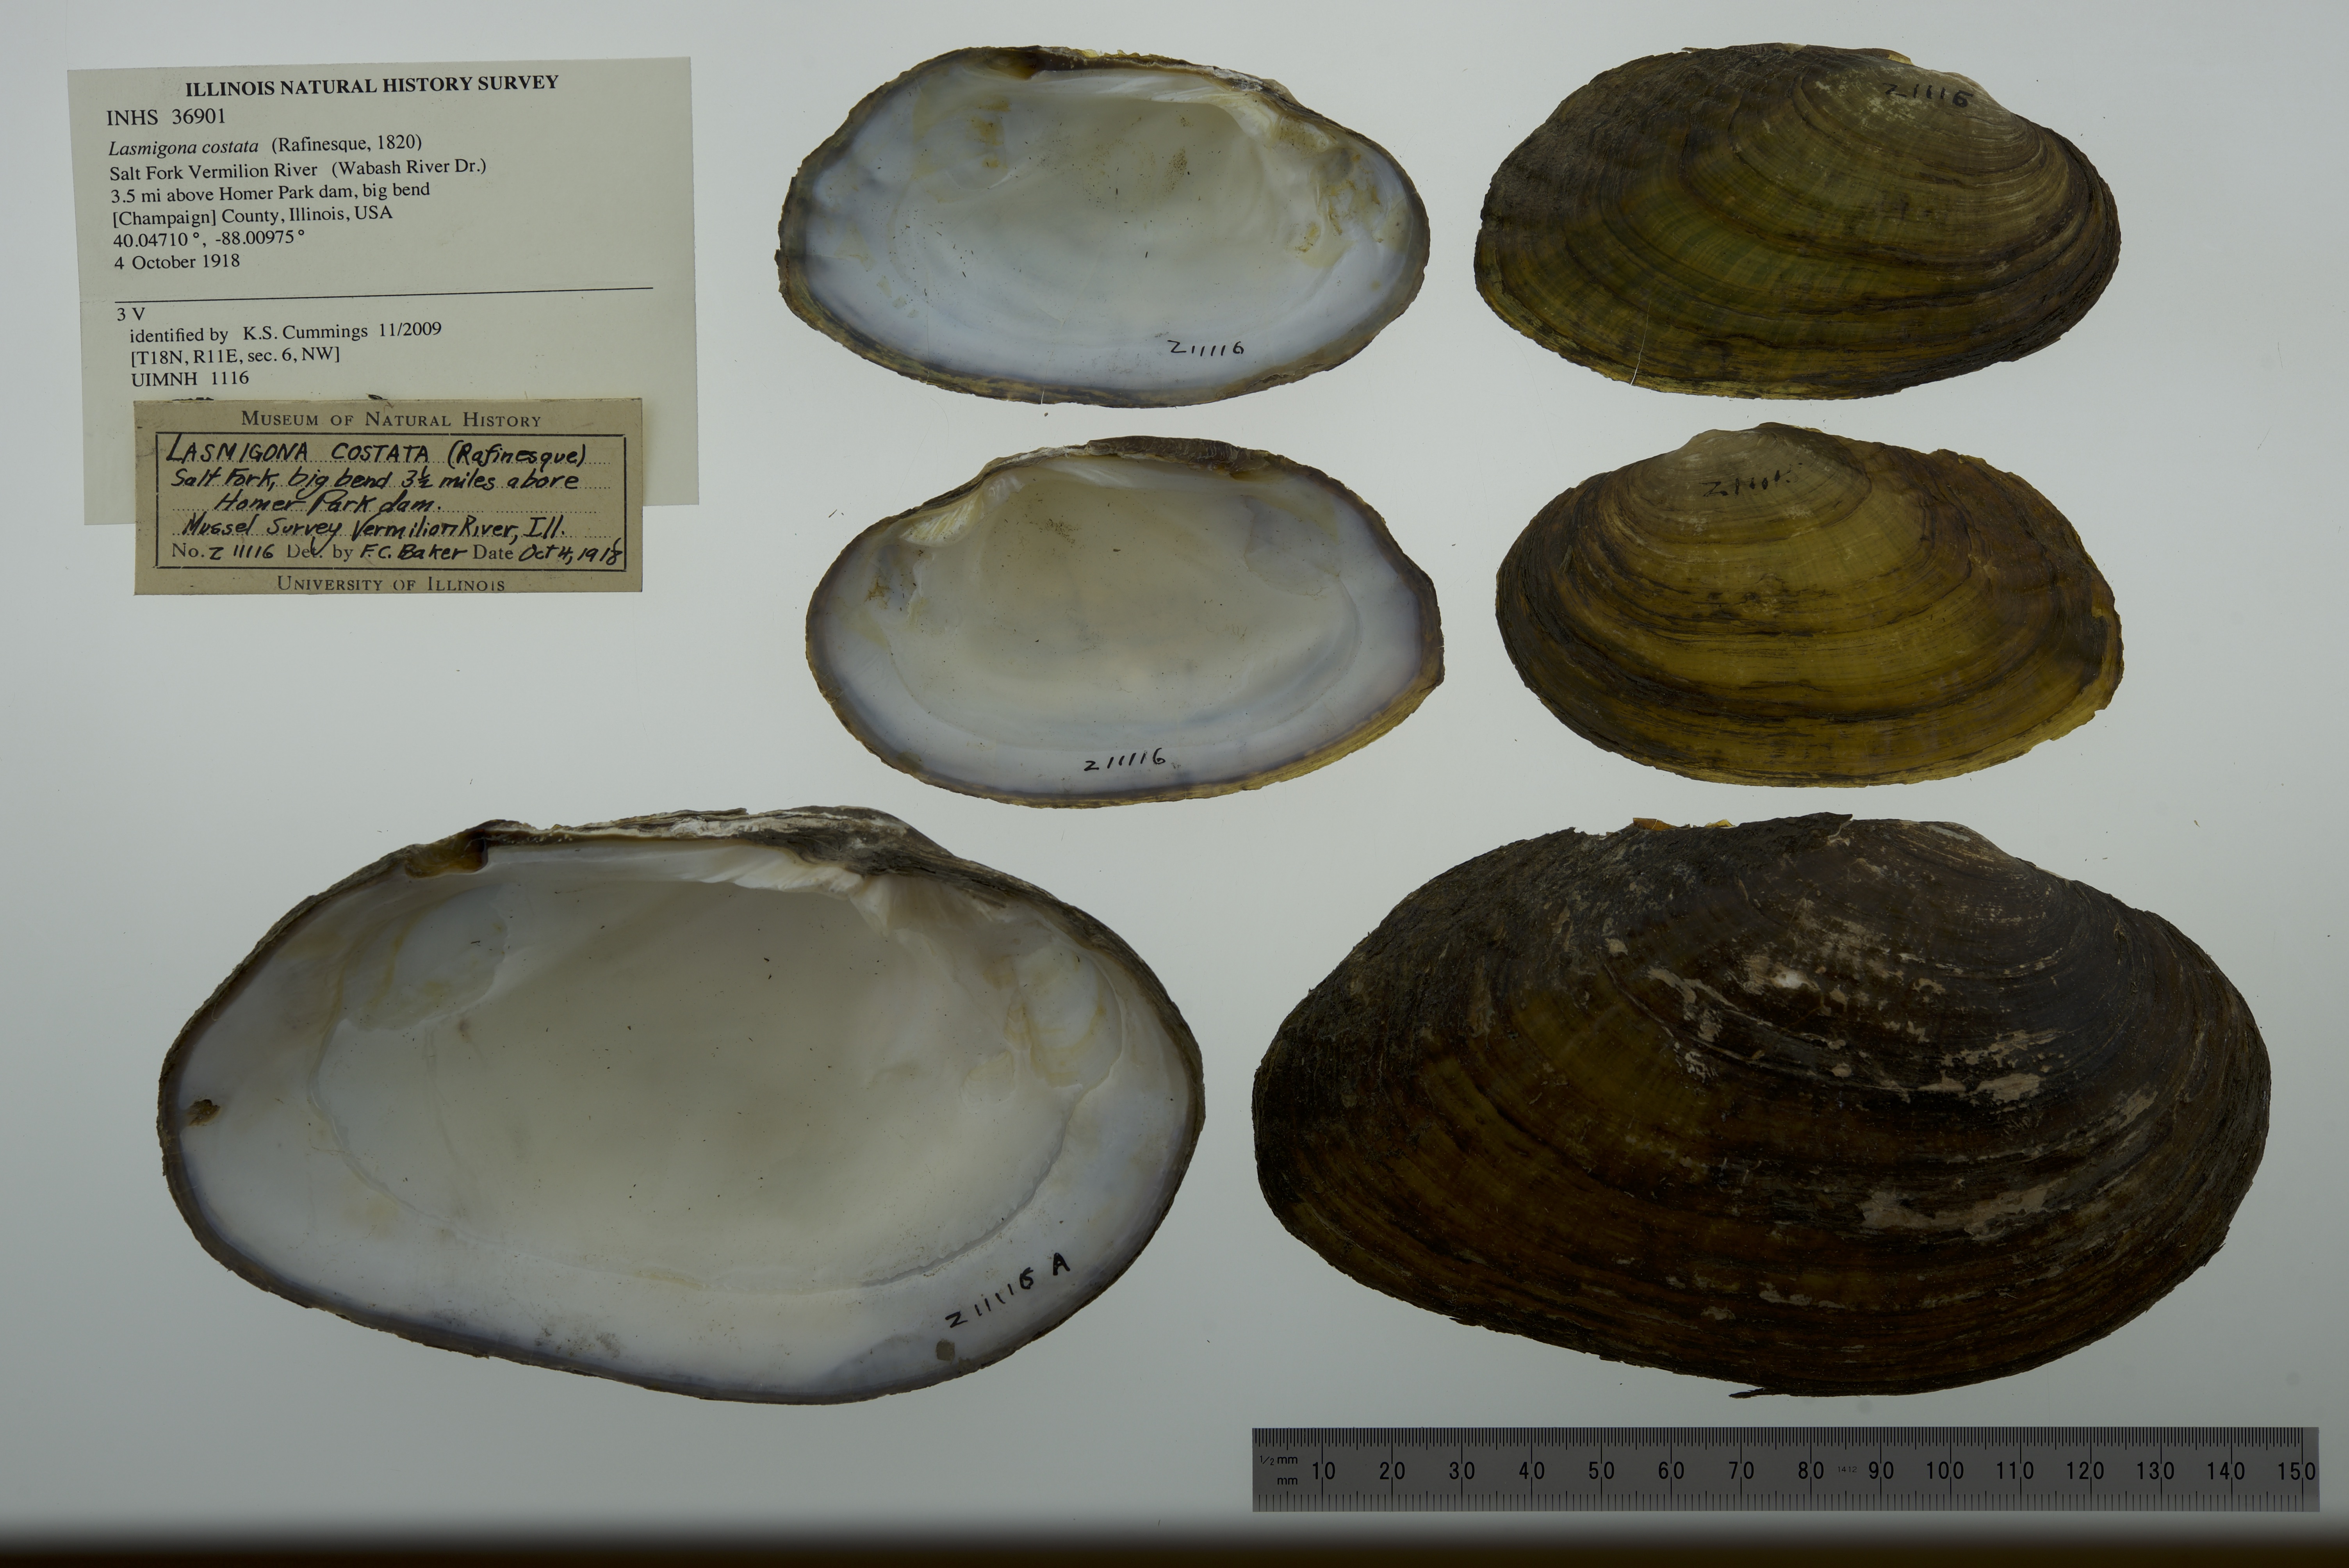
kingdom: Animalia
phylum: Mollusca
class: Bivalvia
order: Unionida
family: Unionidae
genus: Lasmigona
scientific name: Lasmigona costata
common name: Flutedshell
